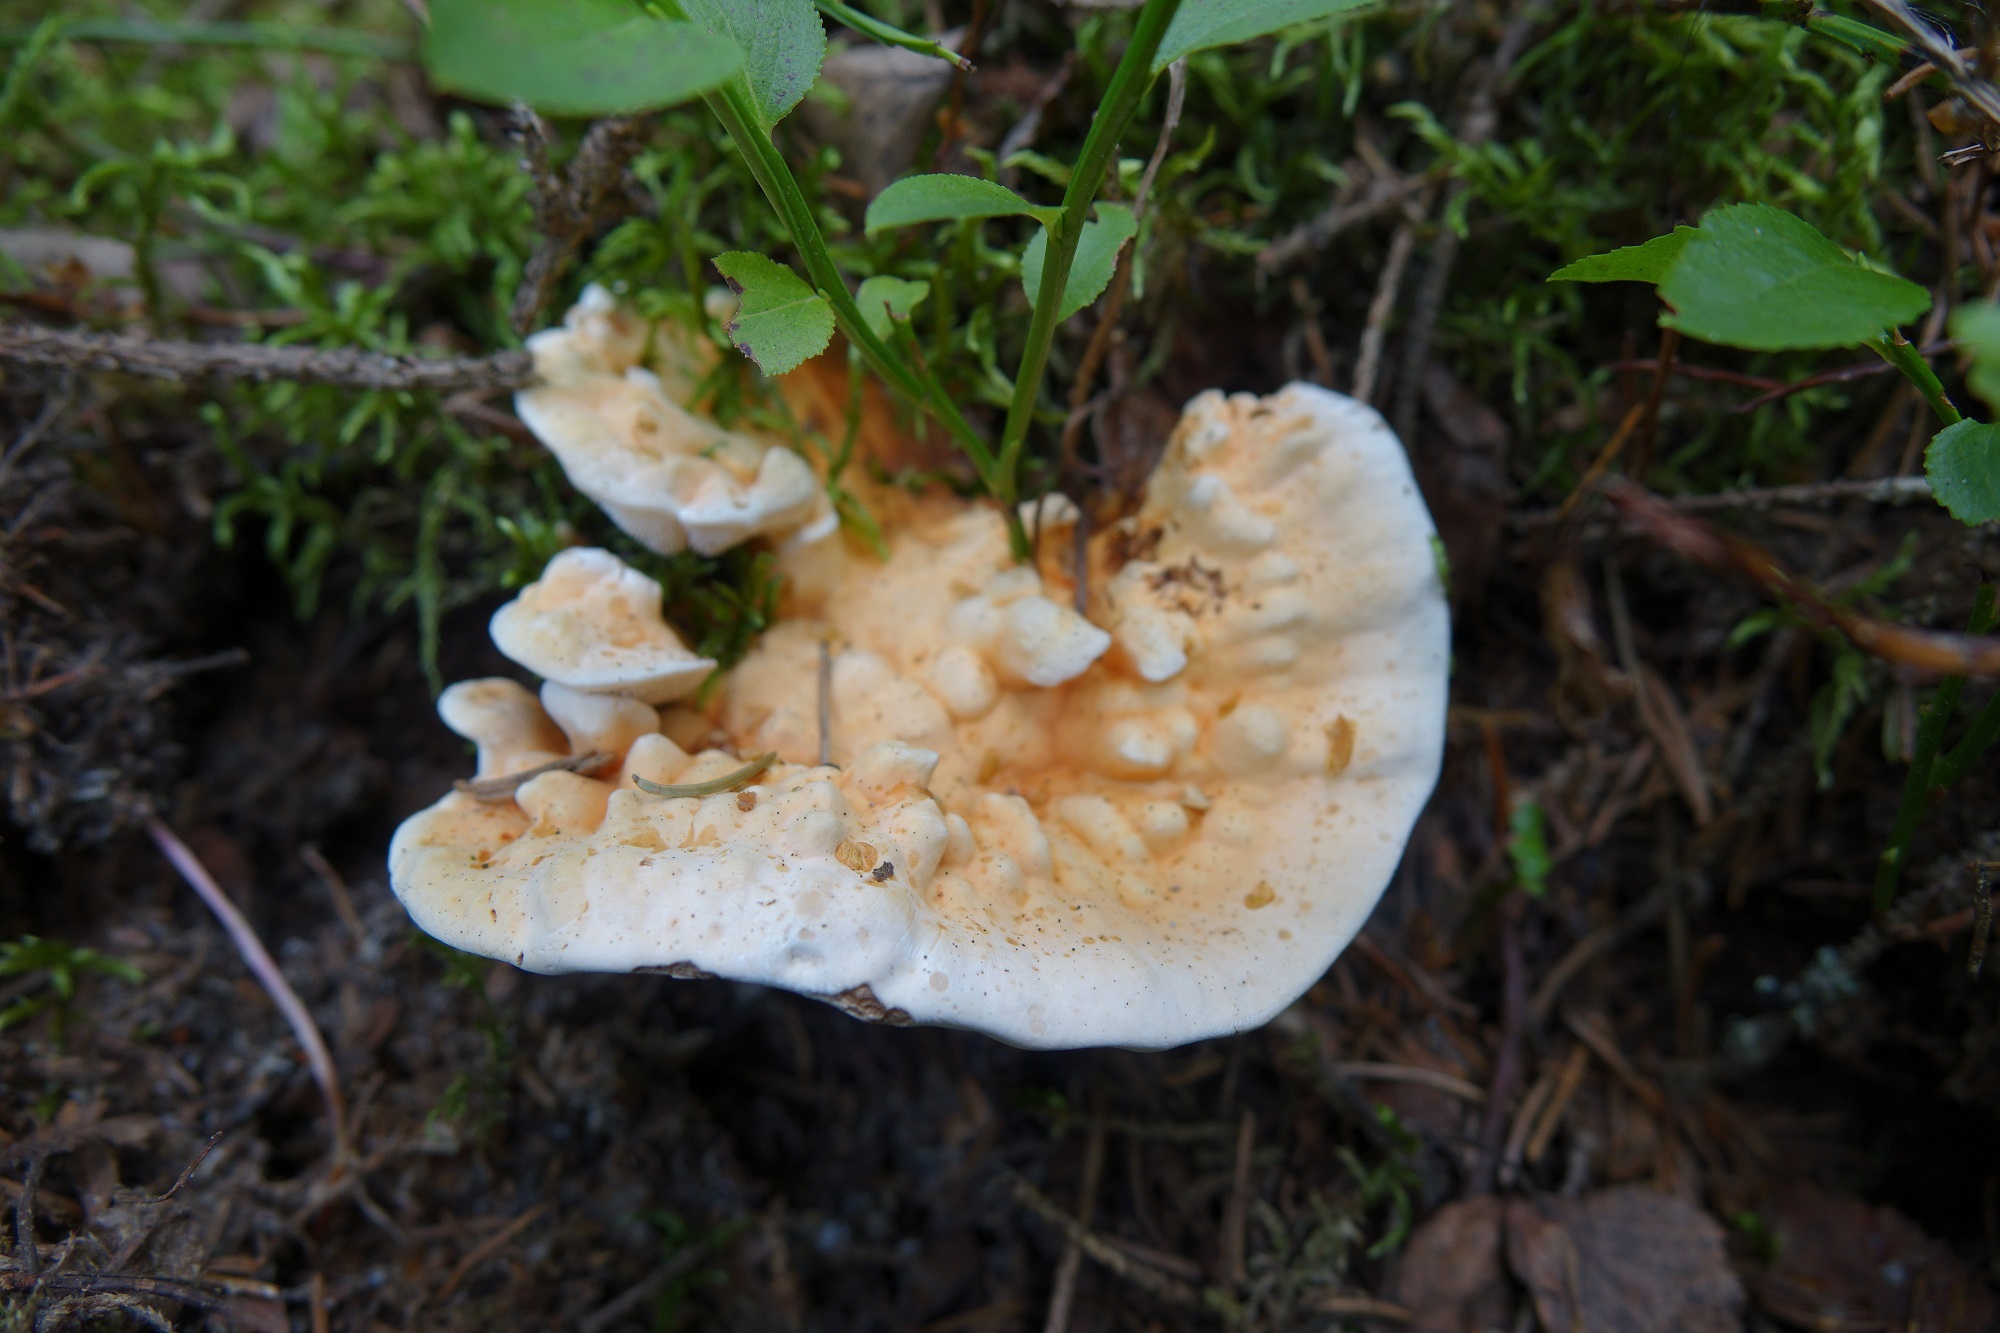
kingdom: Fungi
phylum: Basidiomycota
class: Agaricomycetes
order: Thelephorales
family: Bankeraceae
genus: Hydnellum
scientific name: Hydnellum aurantiacum
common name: Orange tooth
